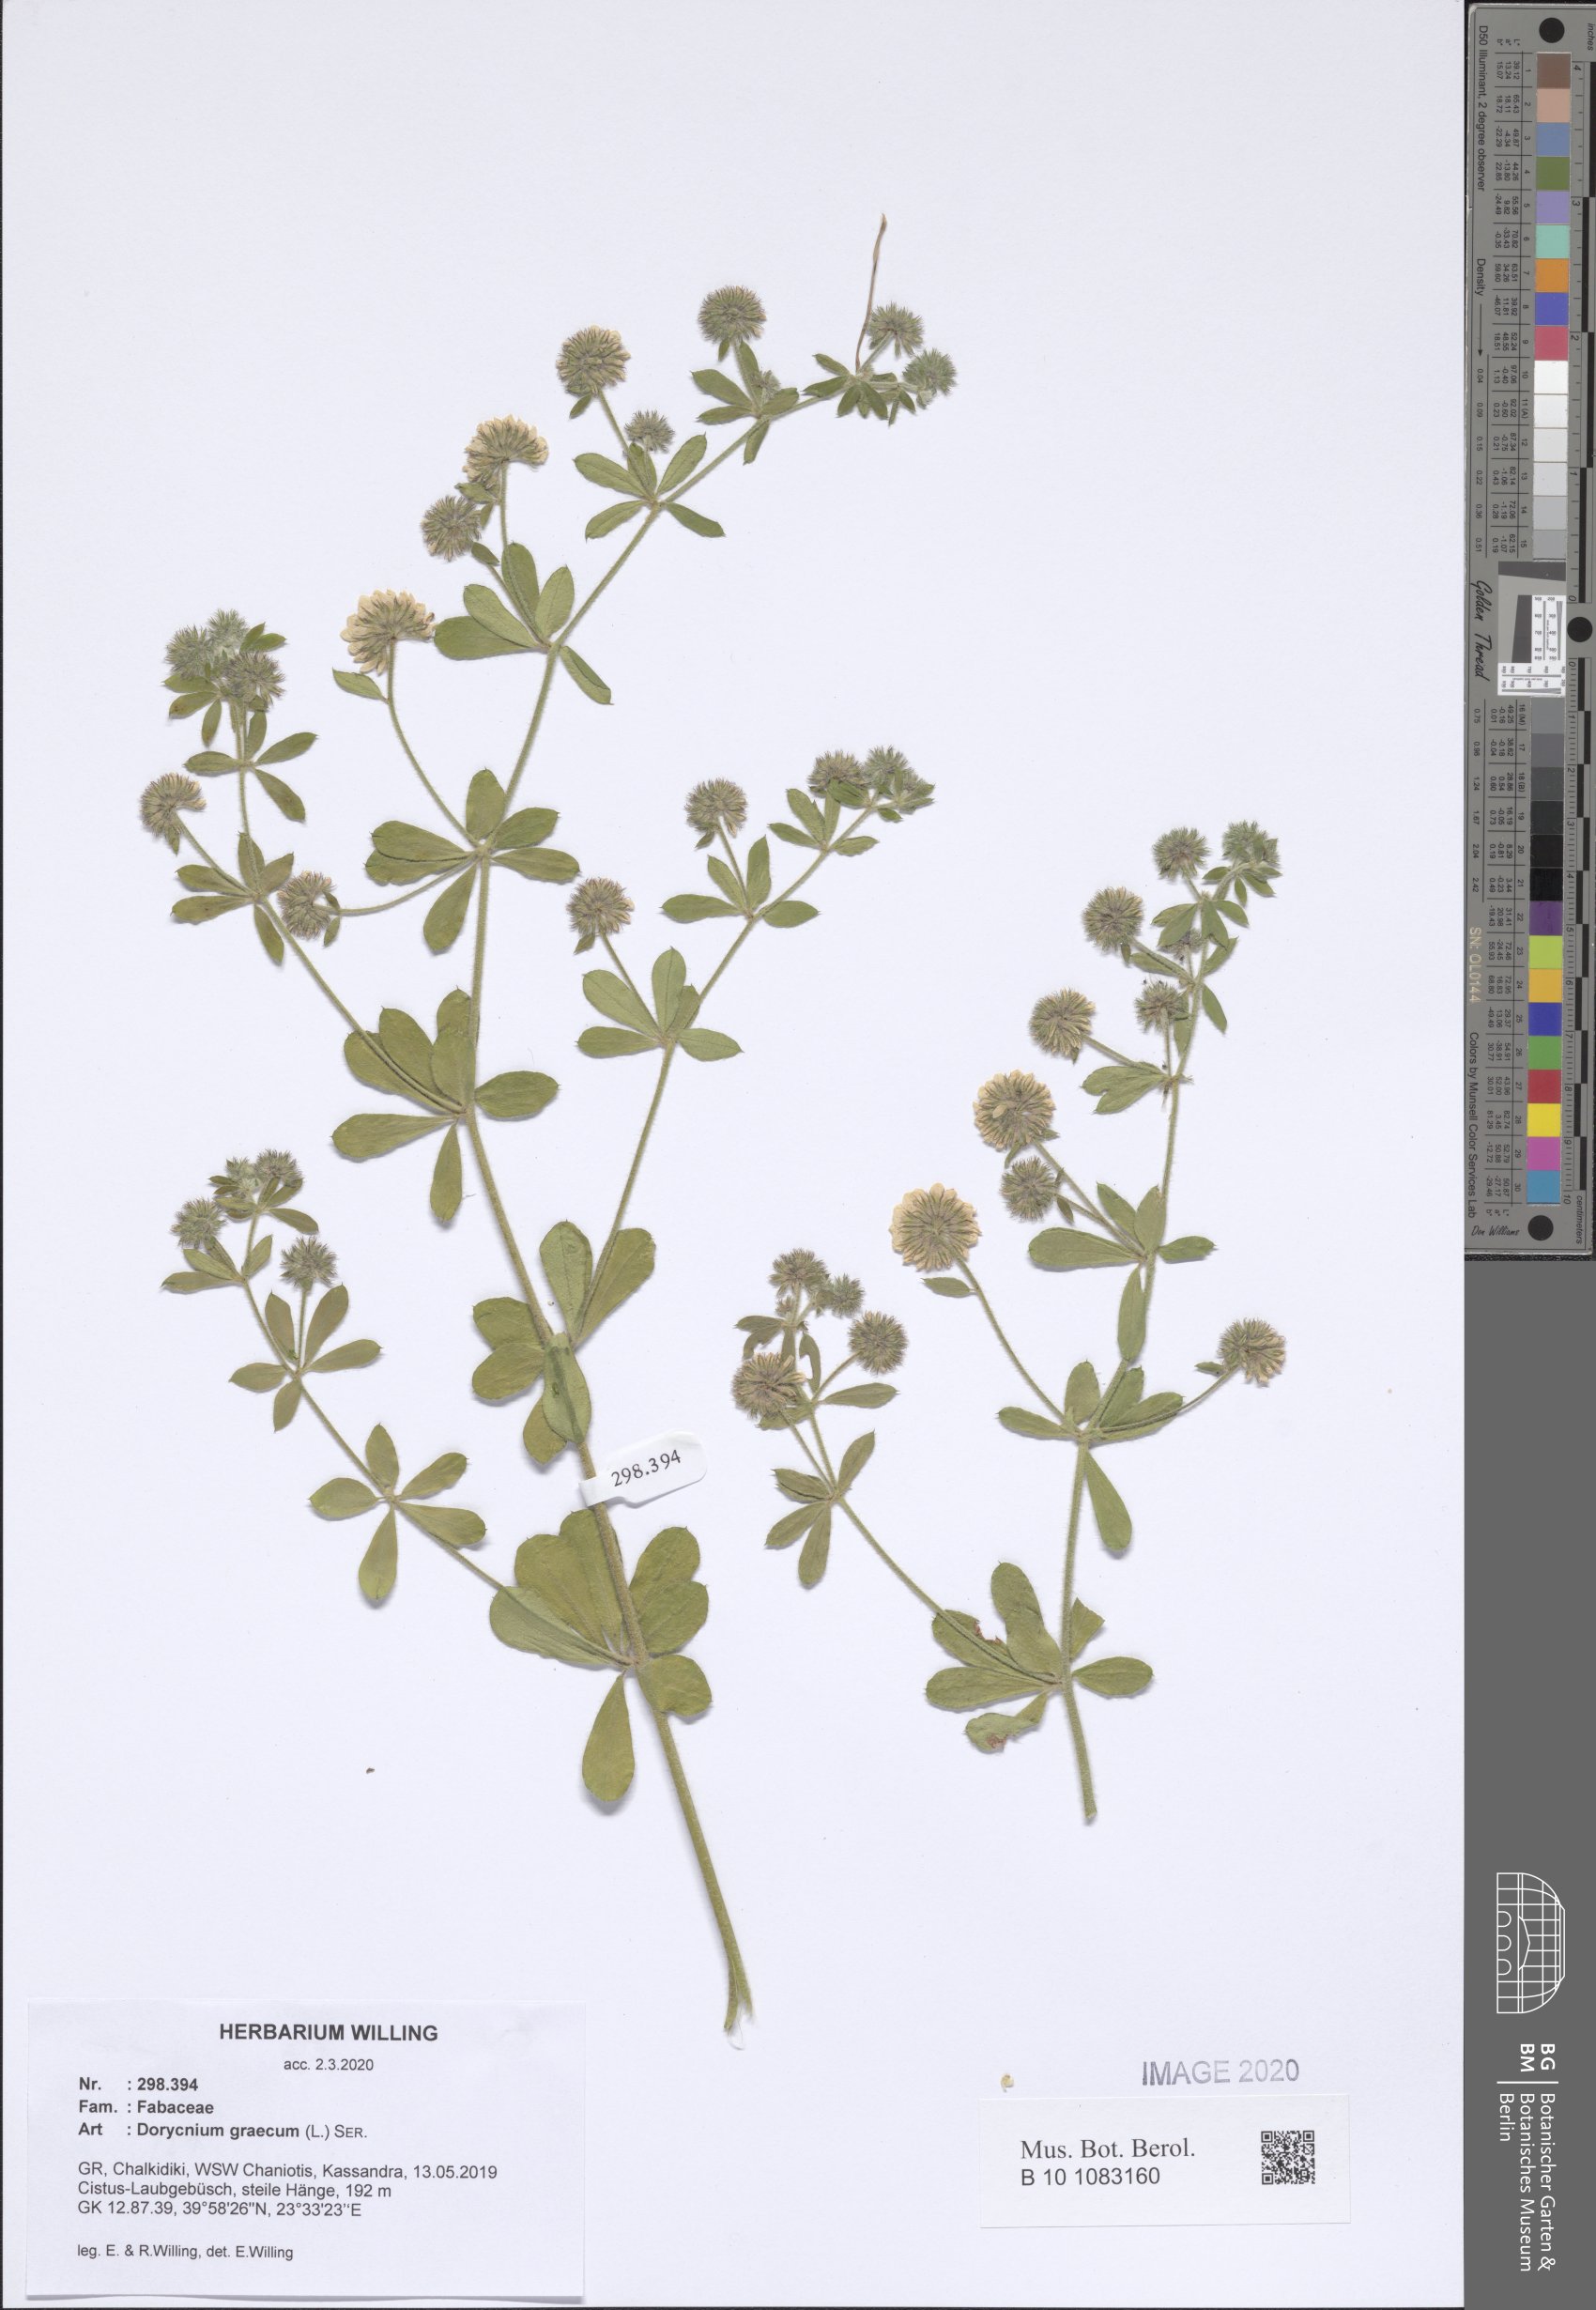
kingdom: Plantae
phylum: Tracheophyta
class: Magnoliopsida
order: Fabales
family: Fabaceae
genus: Lotus
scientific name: Lotus graecus
